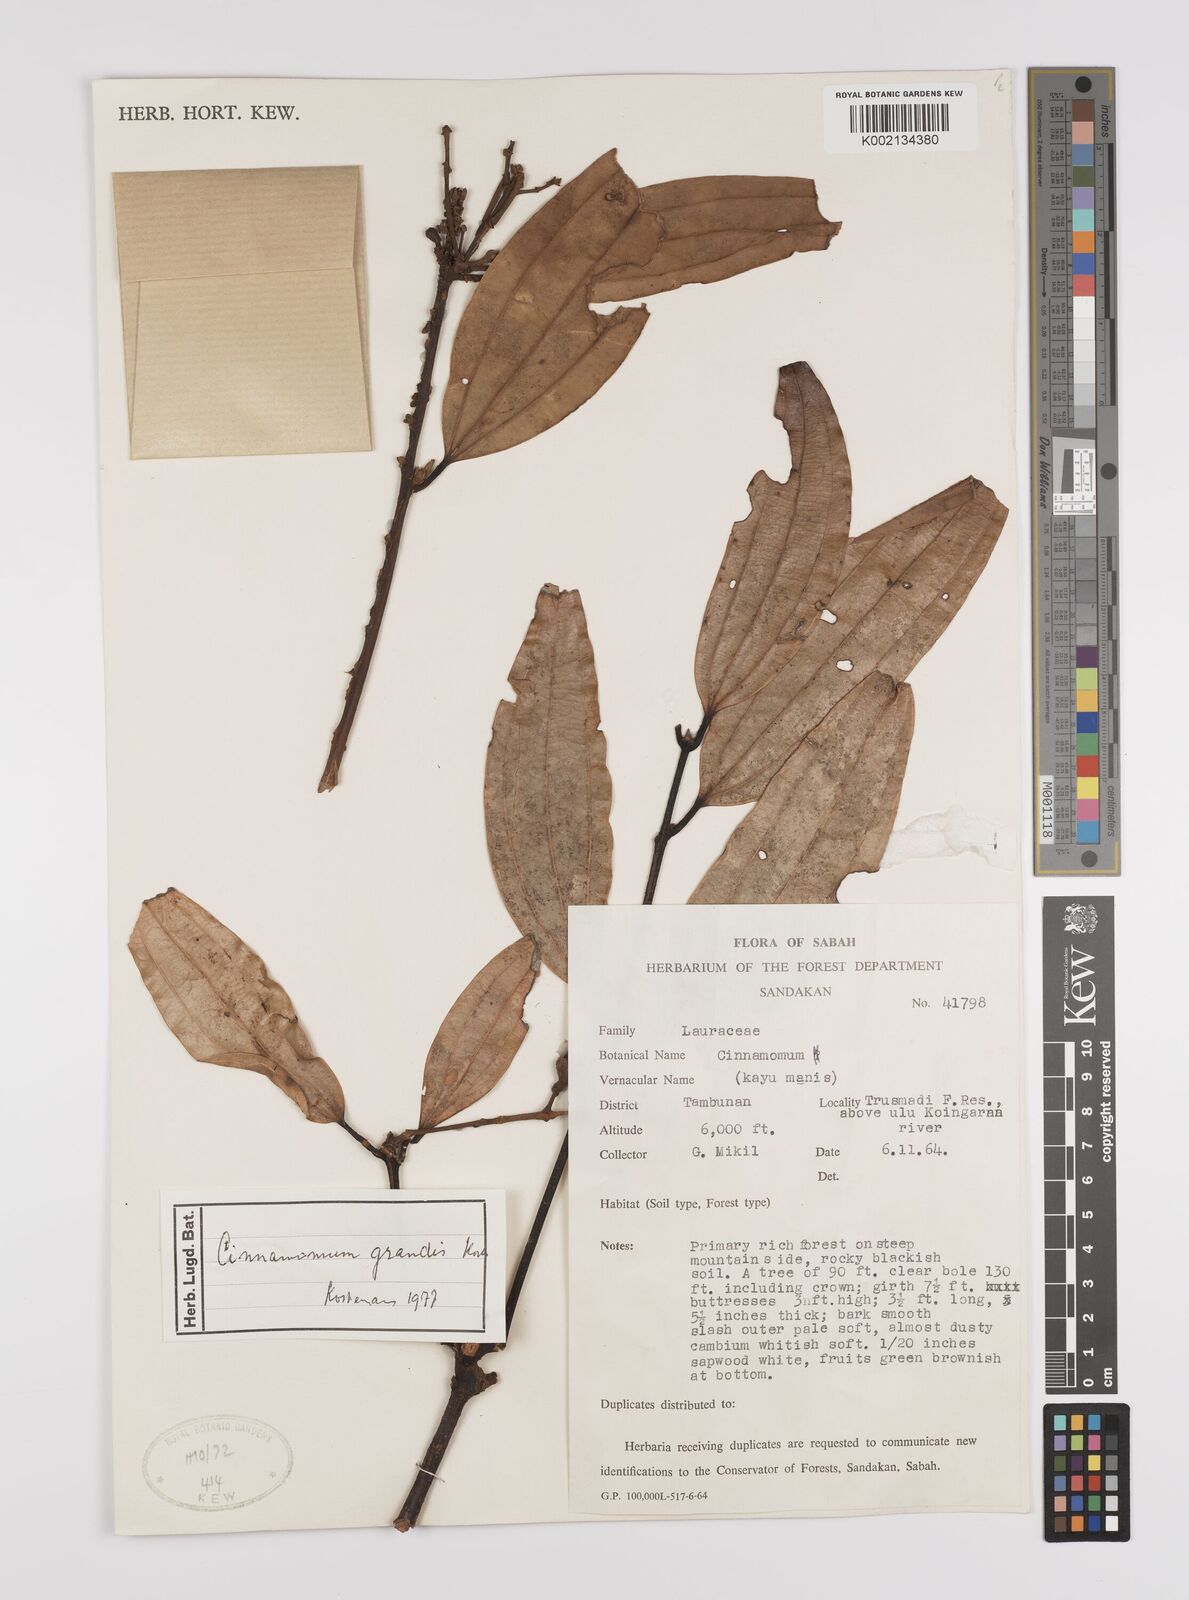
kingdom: Plantae
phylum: Tracheophyta
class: Magnoliopsida
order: Laurales
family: Lauraceae
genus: Cinnamomum
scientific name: Cinnamomum sintoc
